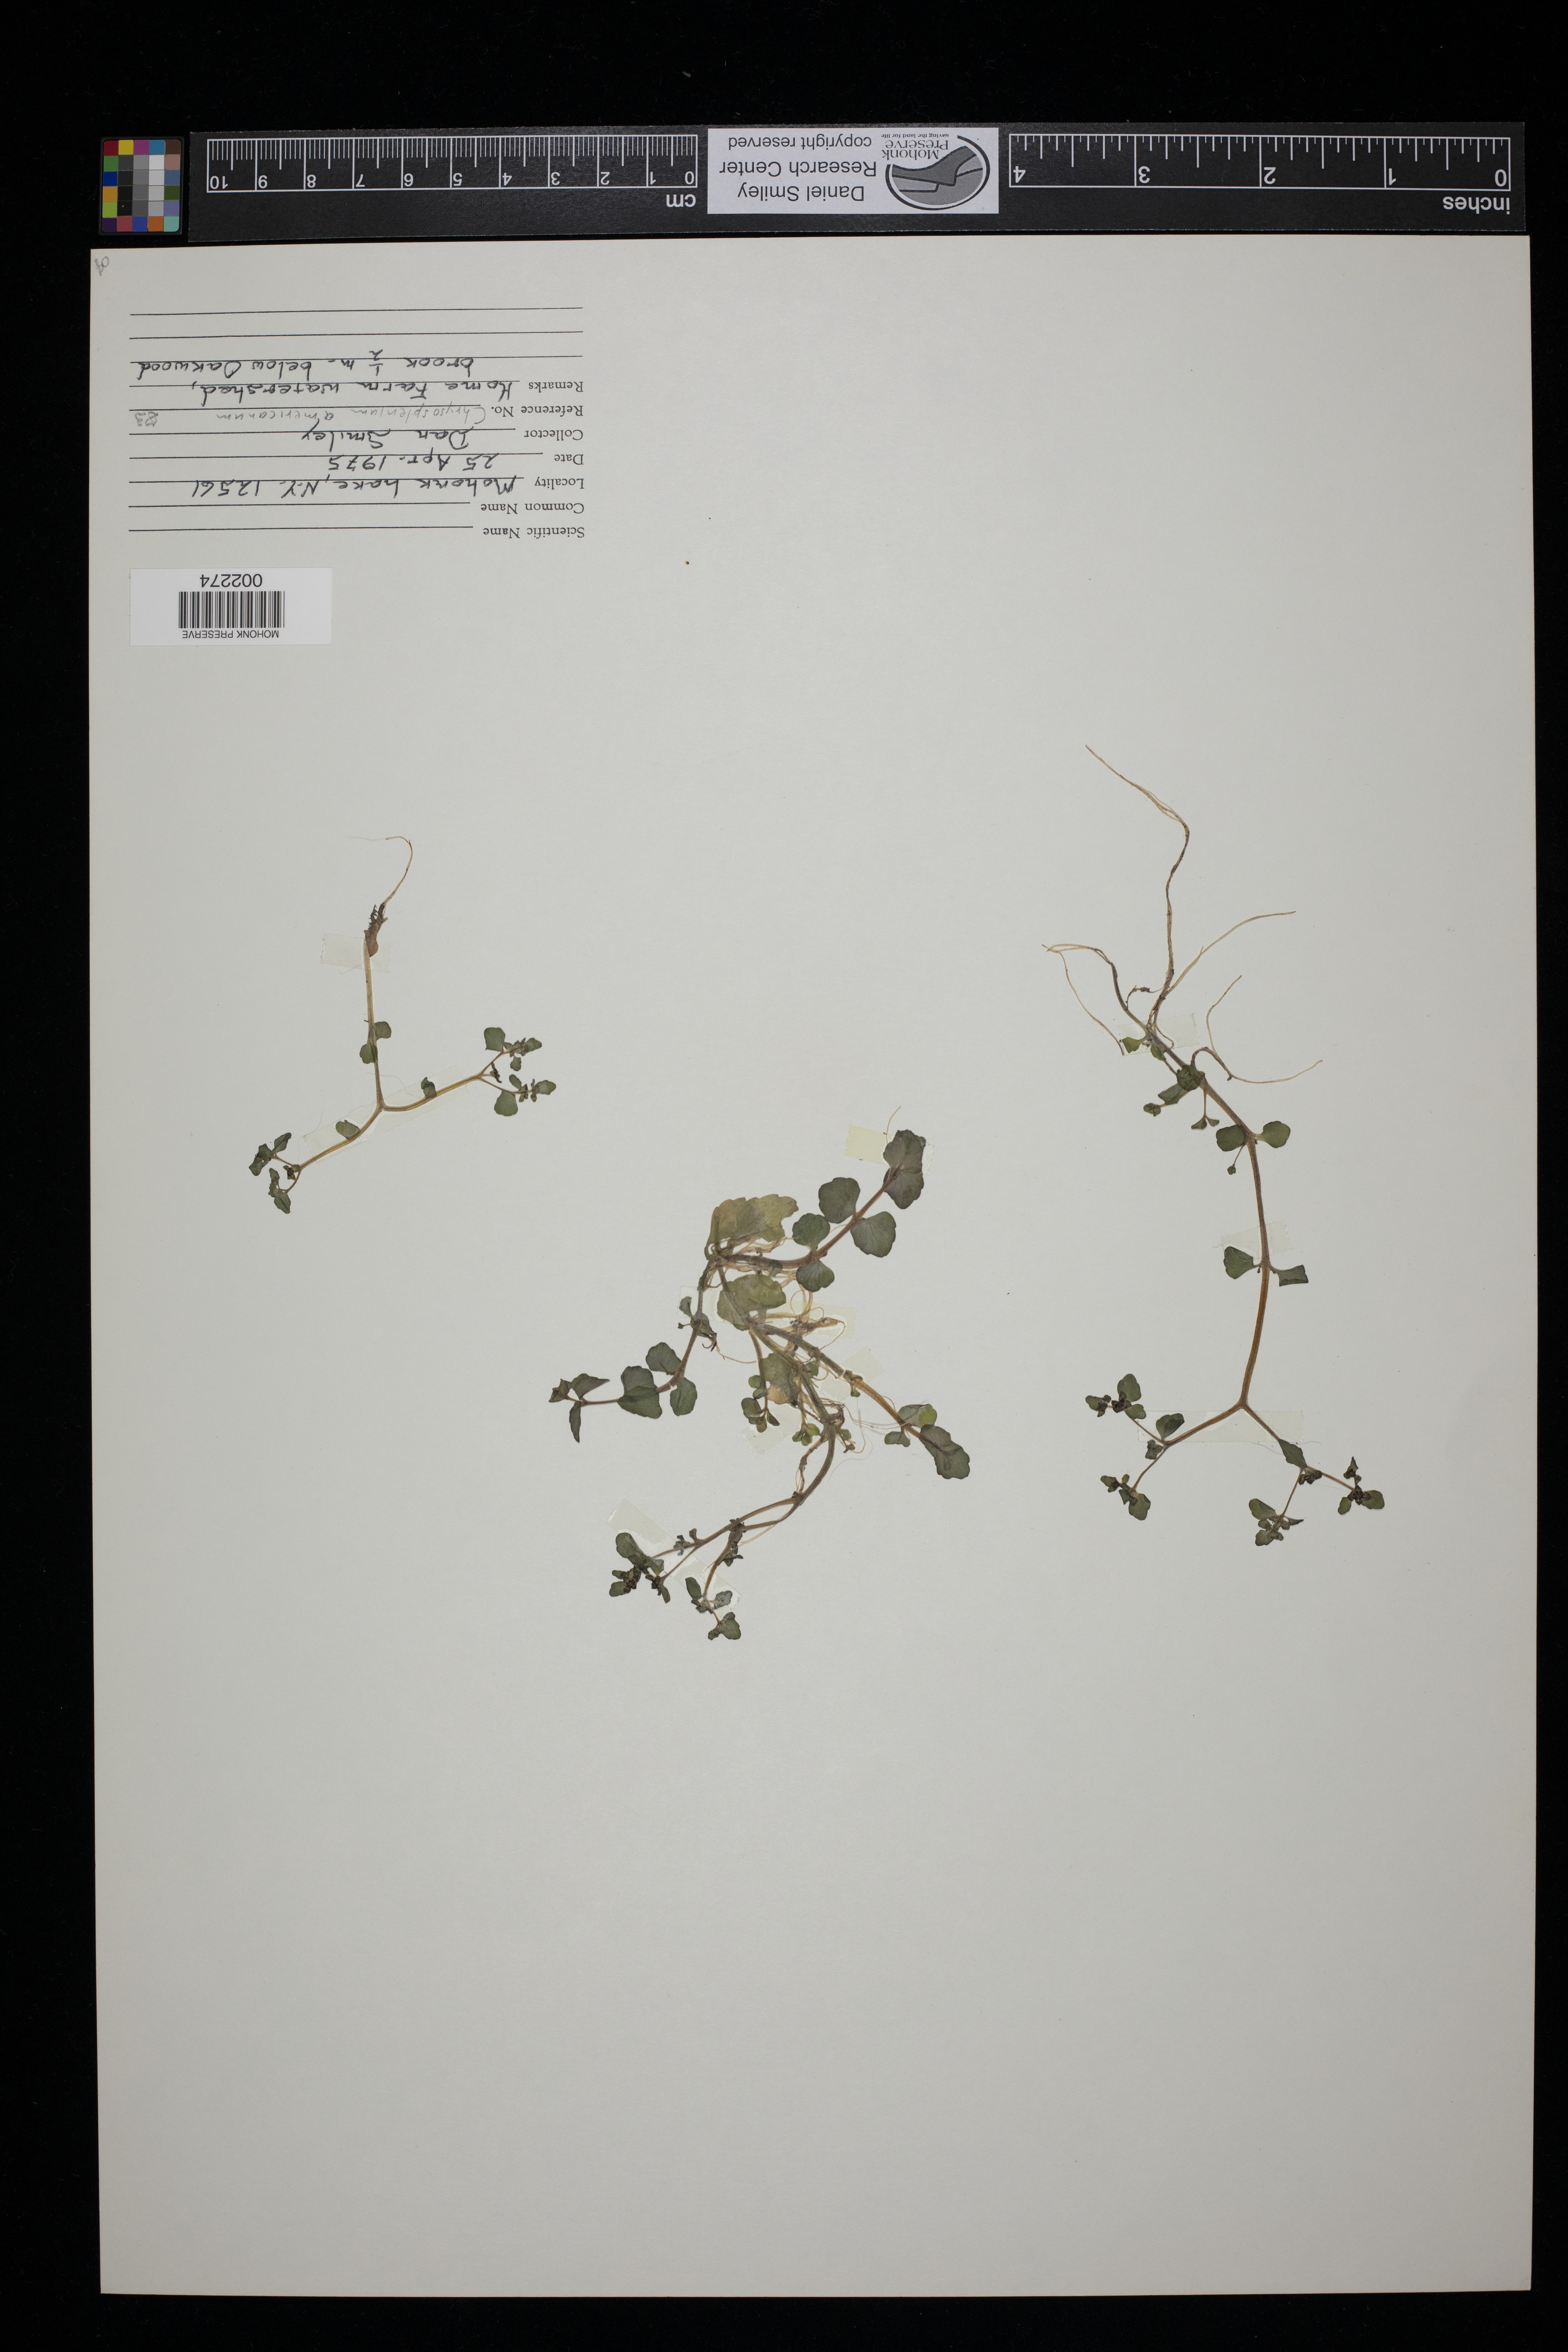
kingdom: Plantae
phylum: Tracheophyta
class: Magnoliopsida
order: Saxifragales
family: Saxifragaceae
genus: Chrysosplenium
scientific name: Chrysosplenium americanum
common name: American golden-saxifrage
